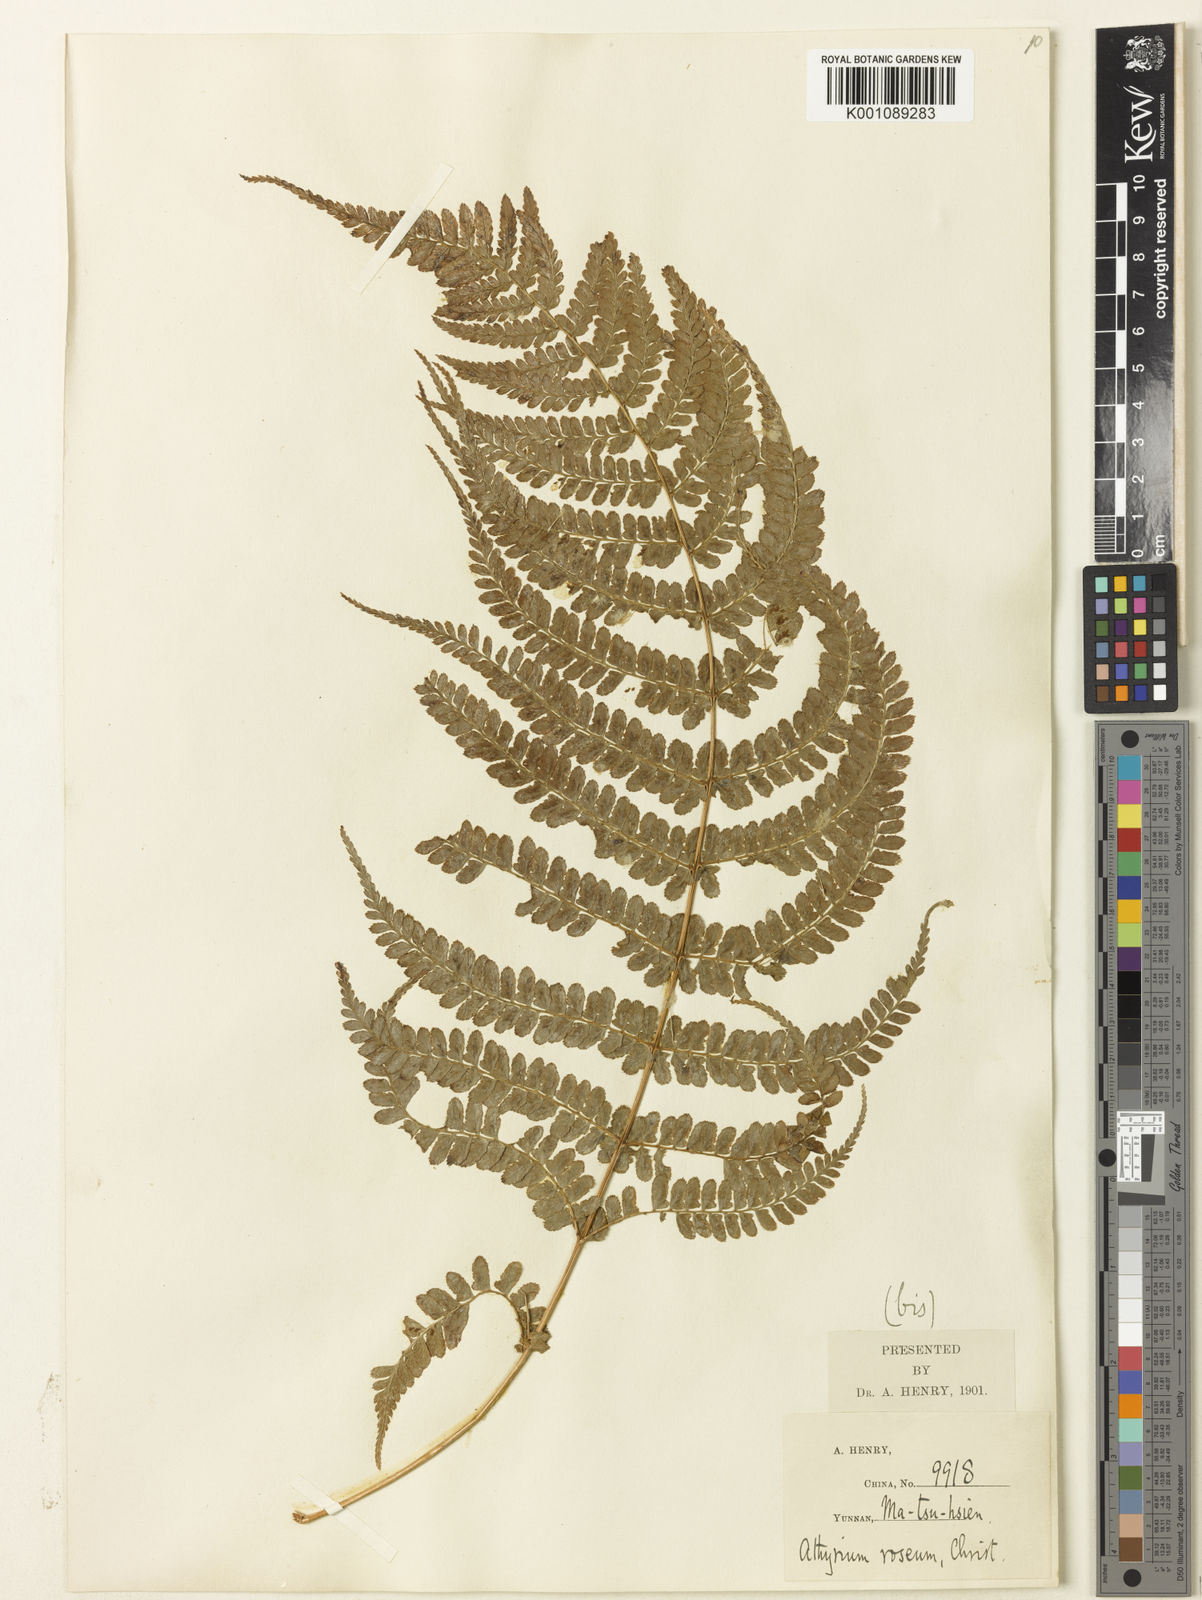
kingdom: Plantae
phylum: Tracheophyta
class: Polypodiopsida
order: Polypodiales
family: Athyriaceae
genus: Athyrium
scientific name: Athyrium roseum
